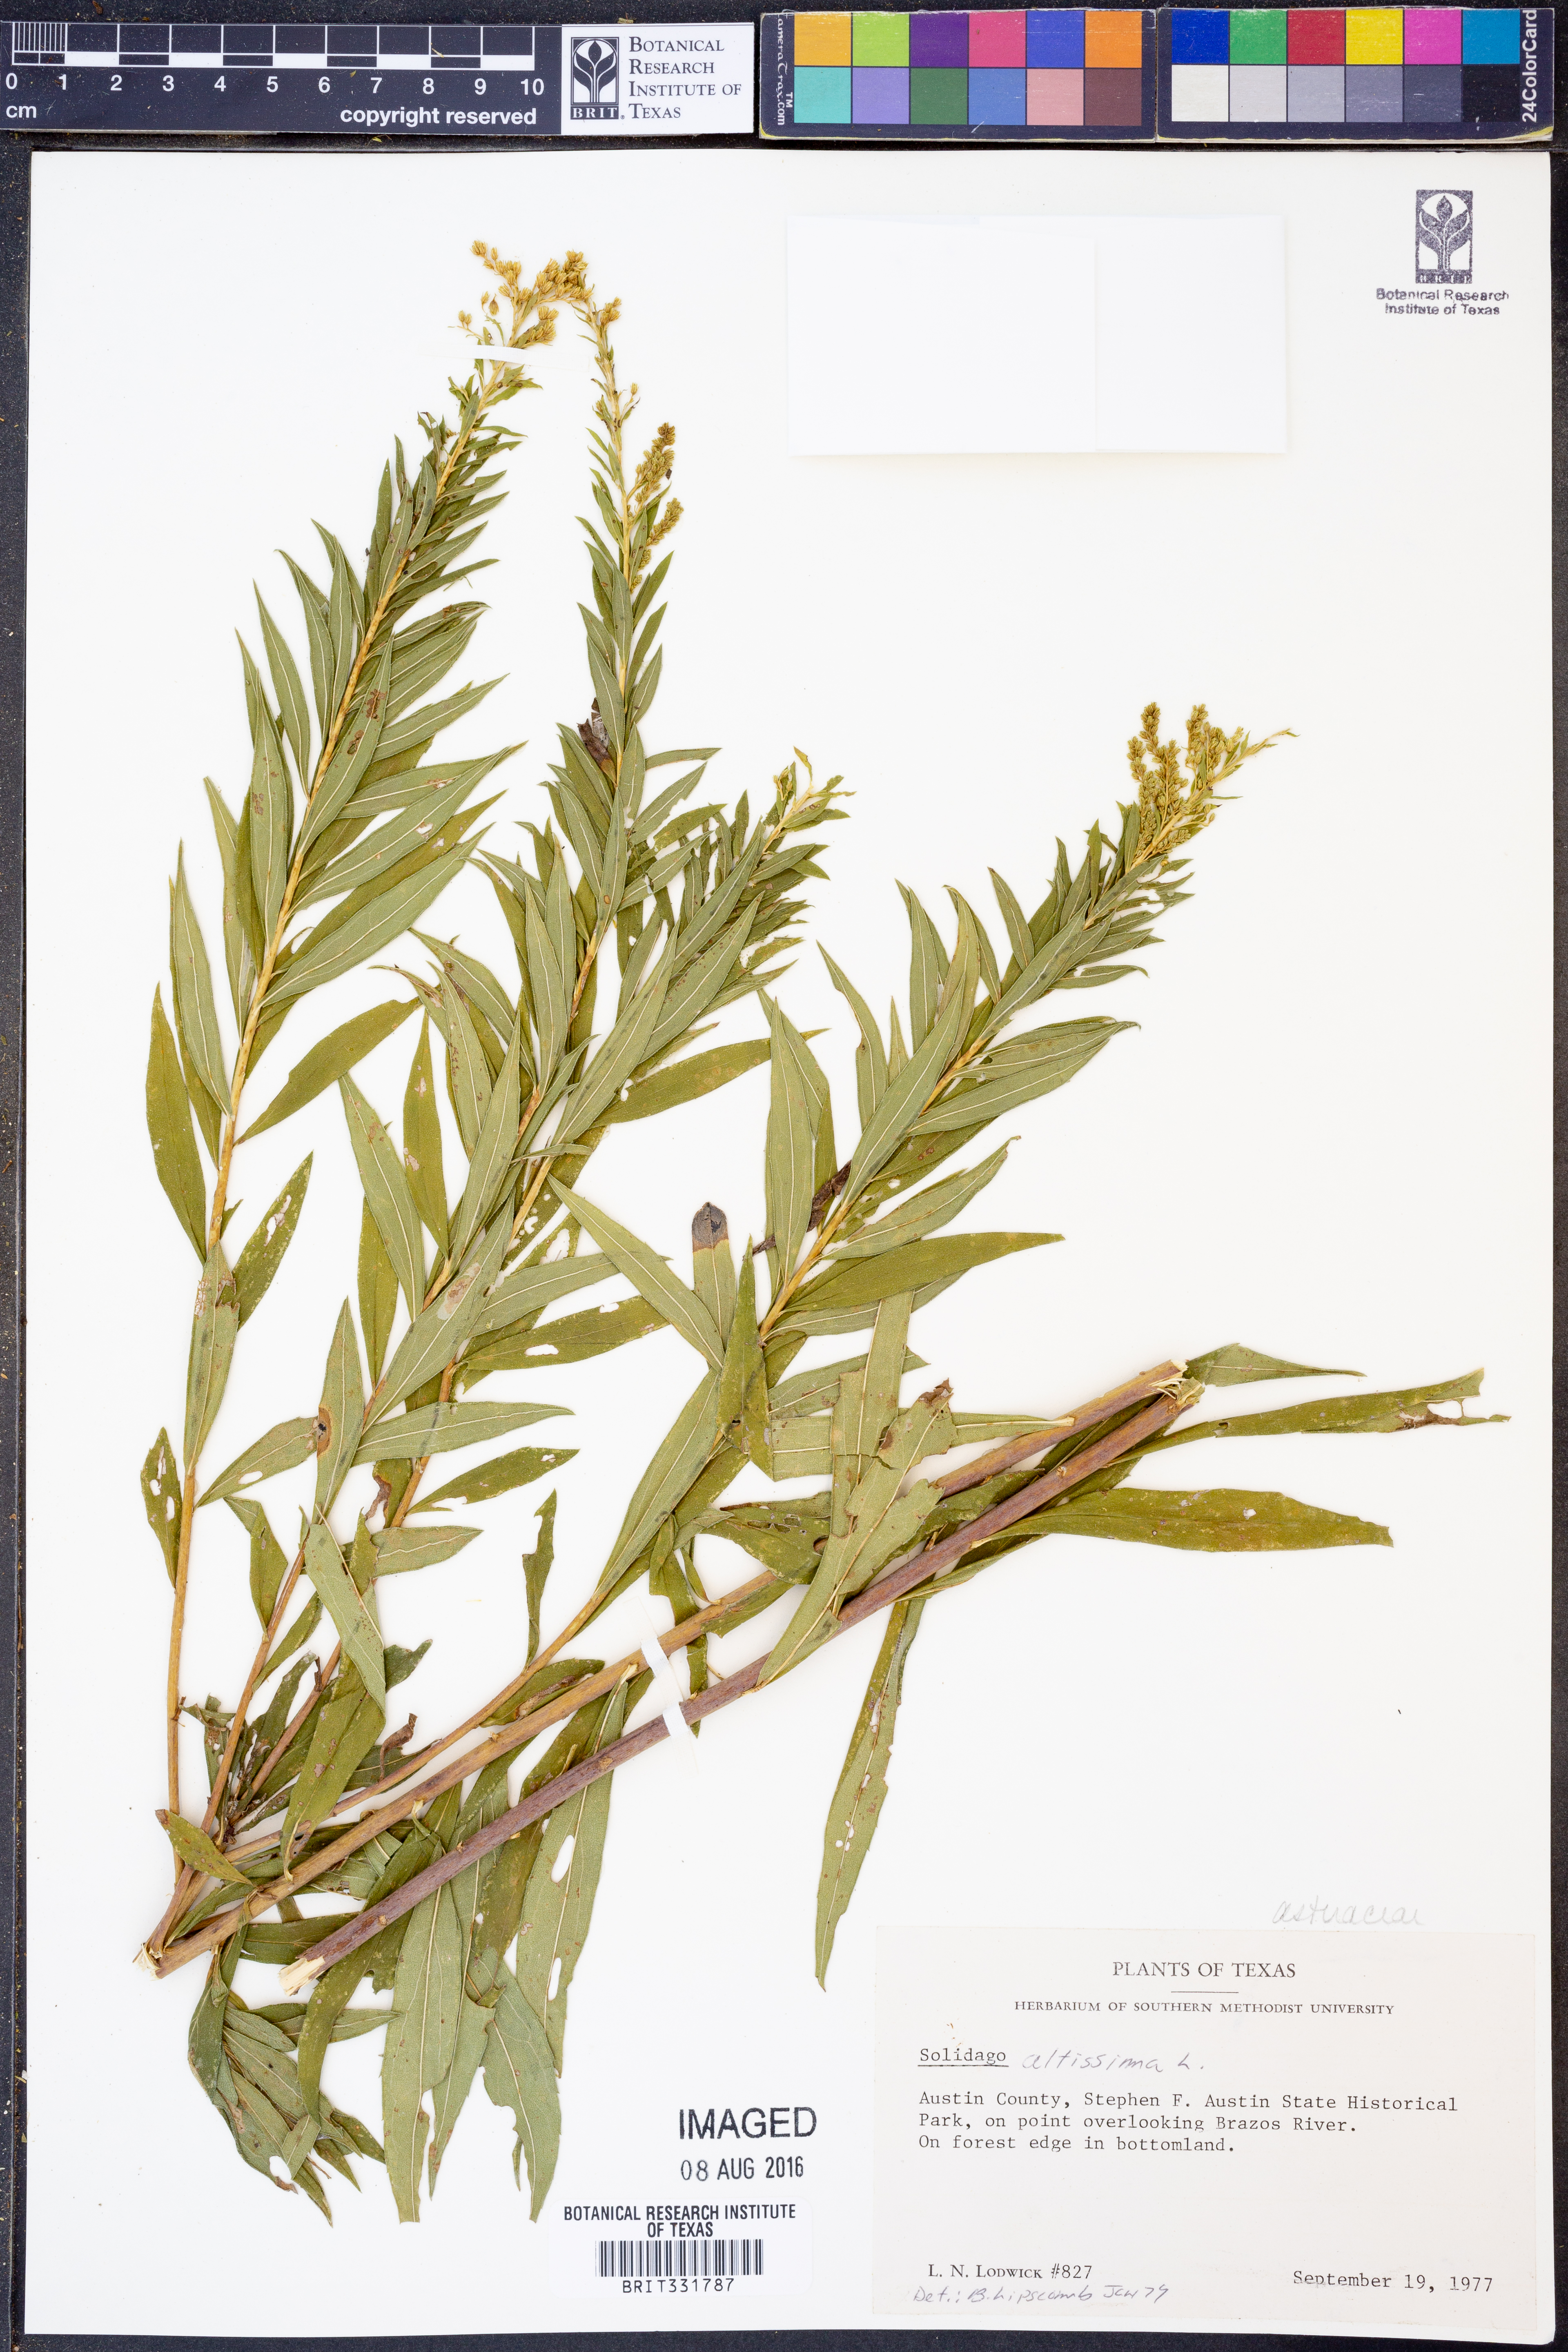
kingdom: Plantae
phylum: Tracheophyta
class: Magnoliopsida
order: Asterales
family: Asteraceae
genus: Solidago
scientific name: Solidago altissima
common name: Late goldenrod
